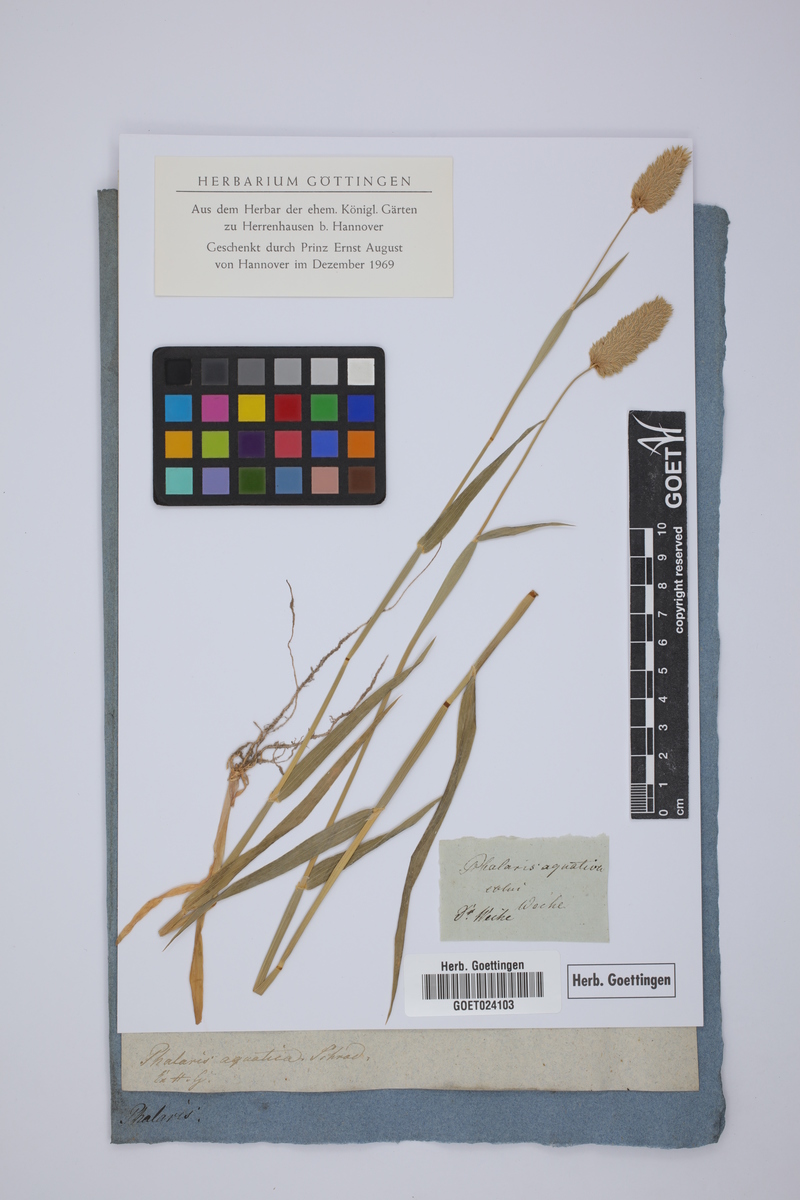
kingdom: Plantae
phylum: Tracheophyta
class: Liliopsida
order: Poales
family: Poaceae
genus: Phalaris
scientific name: Phalaris aquatica
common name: Bulbous canary-grass
